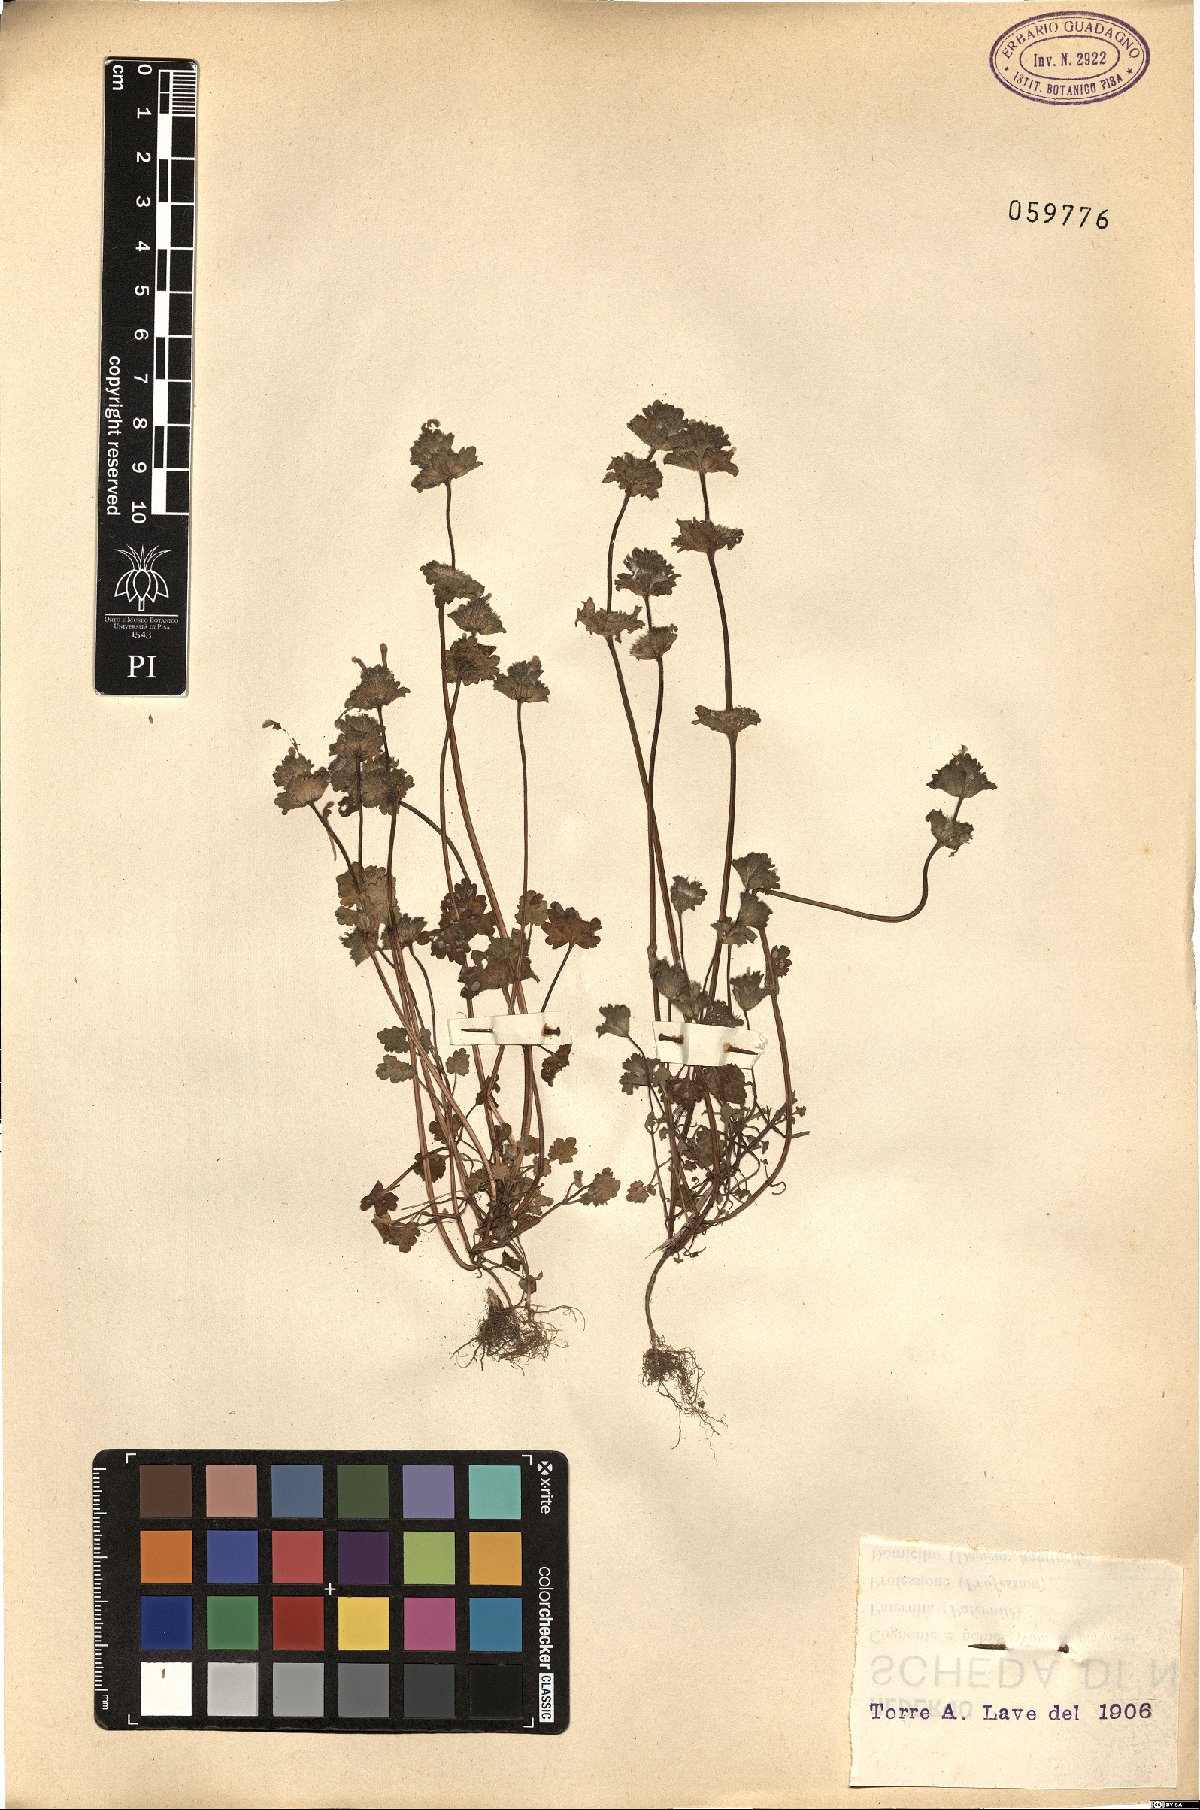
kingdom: Plantae
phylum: Tracheophyta
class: Magnoliopsida
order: Lamiales
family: Lamiaceae
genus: Lamium
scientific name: Lamium amplexicaule
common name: Henbit dead-nettle
